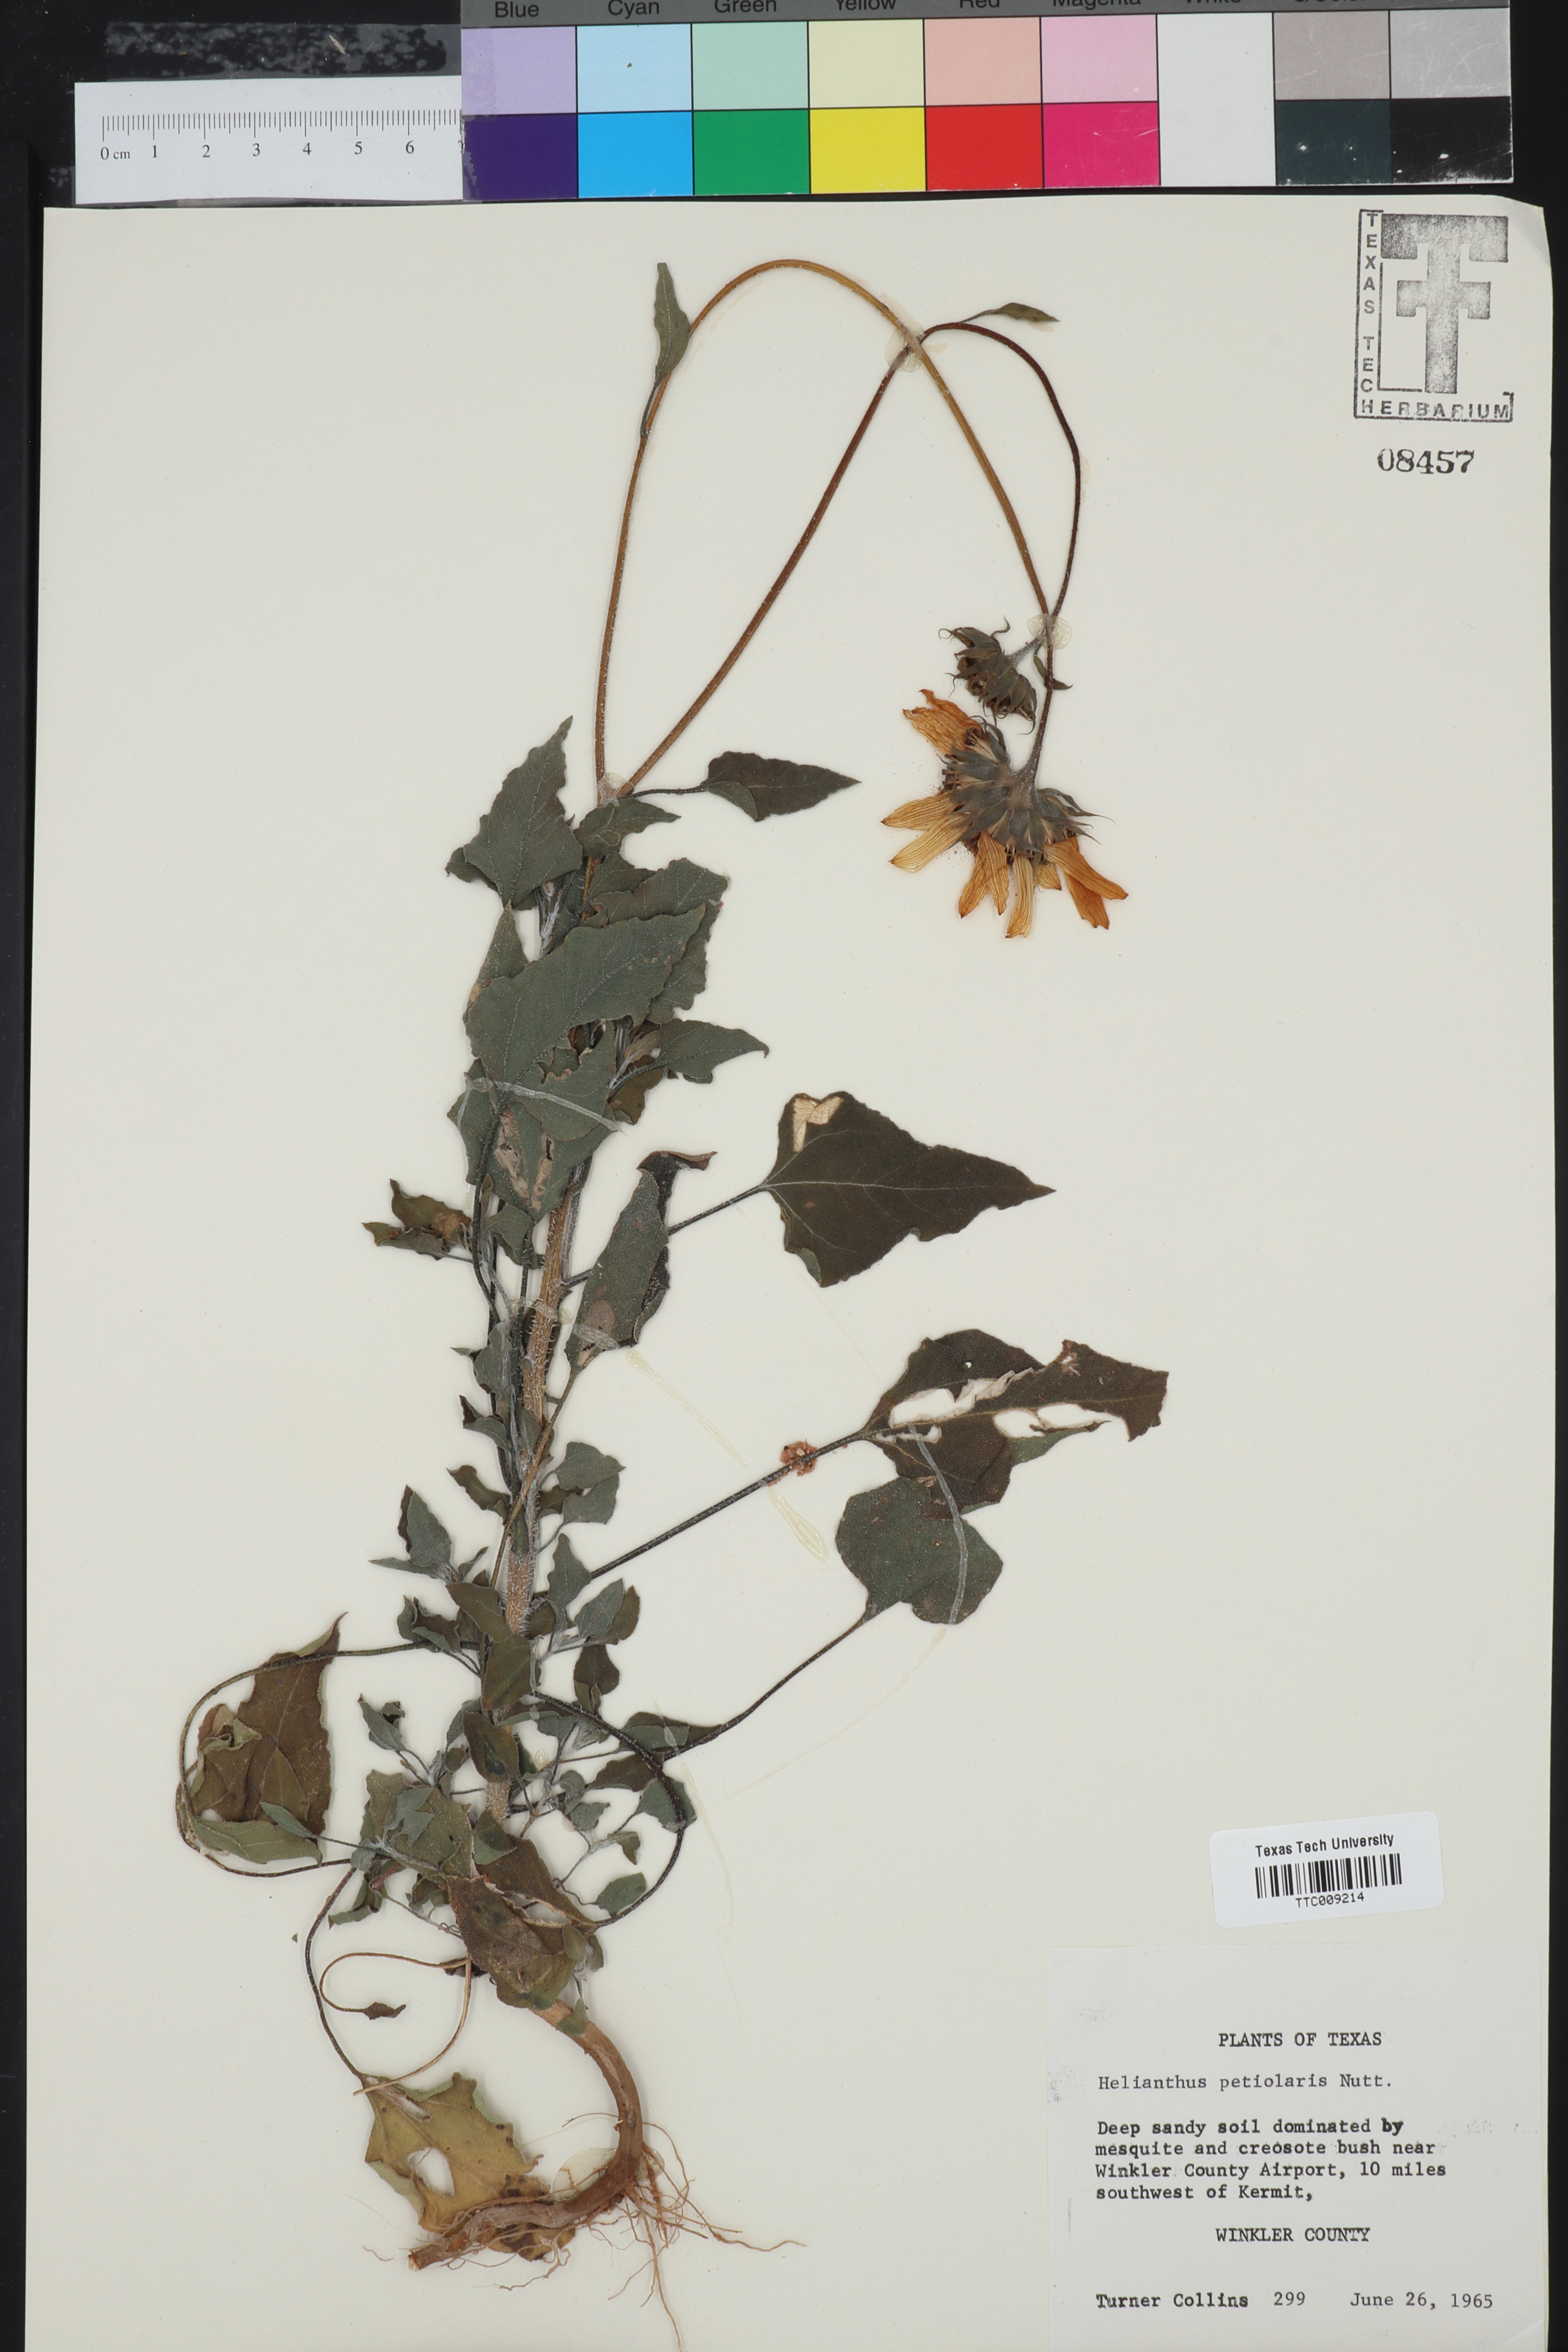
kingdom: Plantae
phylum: Tracheophyta
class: Magnoliopsida
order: Asterales
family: Asteraceae
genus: Helianthus
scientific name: Helianthus petiolaris
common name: Lesser sunflower
